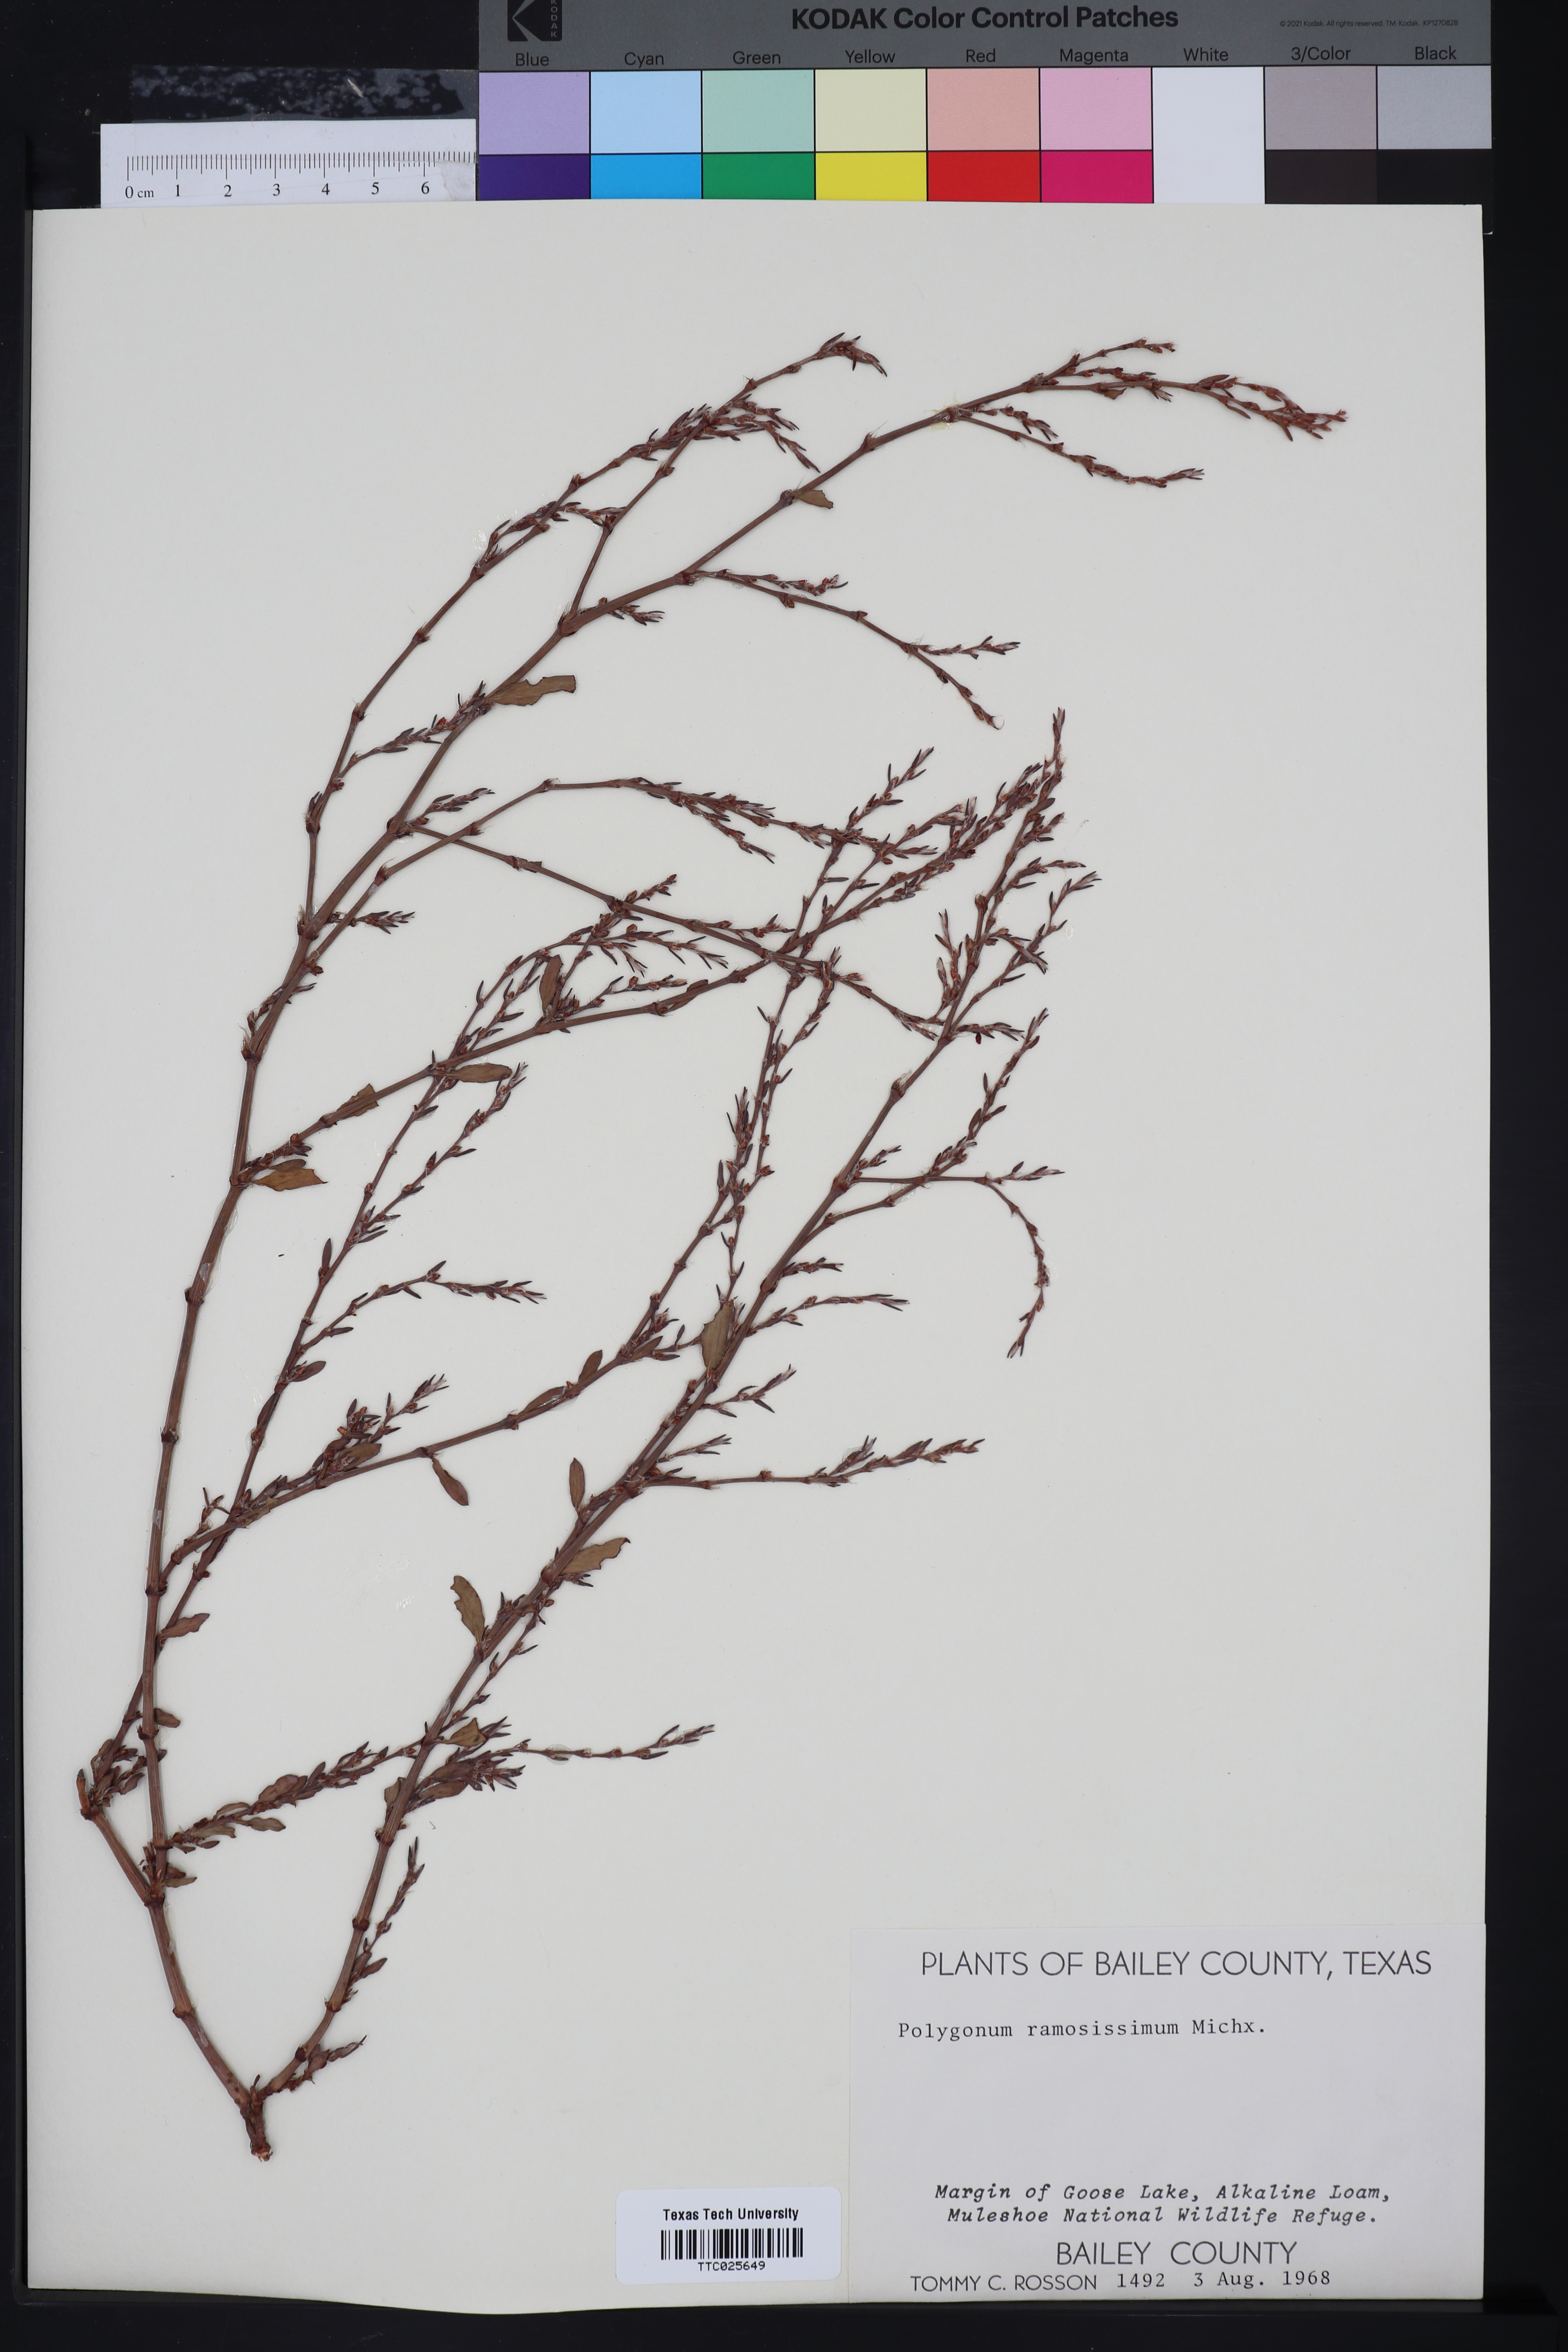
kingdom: Plantae
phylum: Tracheophyta
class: Magnoliopsida
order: Caryophyllales
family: Polygonaceae
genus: Polygonum
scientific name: Polygonum ramosissimum
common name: Bushy knotweed
